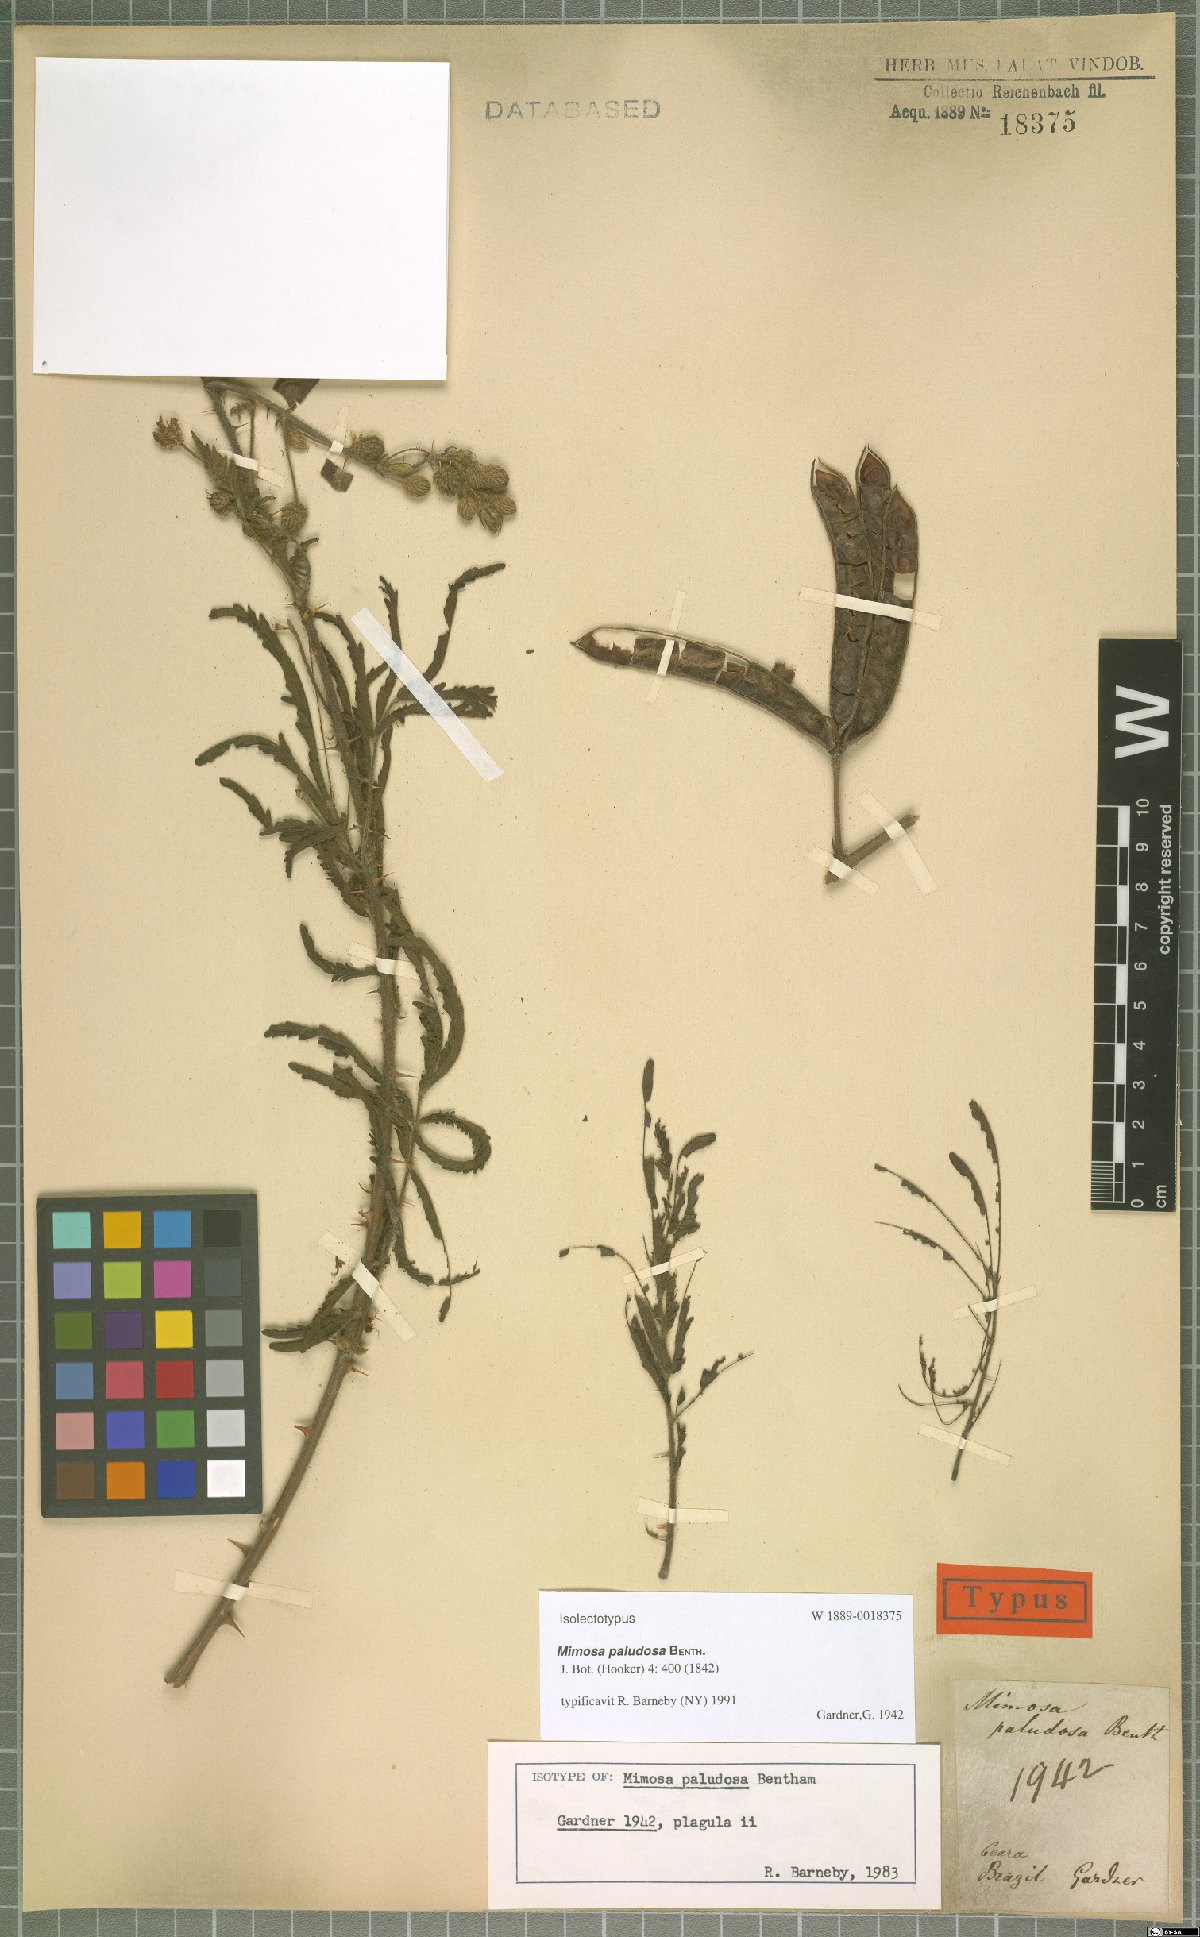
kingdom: Plantae
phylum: Tracheophyta
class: Magnoliopsida
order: Fabales
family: Fabaceae
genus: Mimosa
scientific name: Mimosa paludosa
